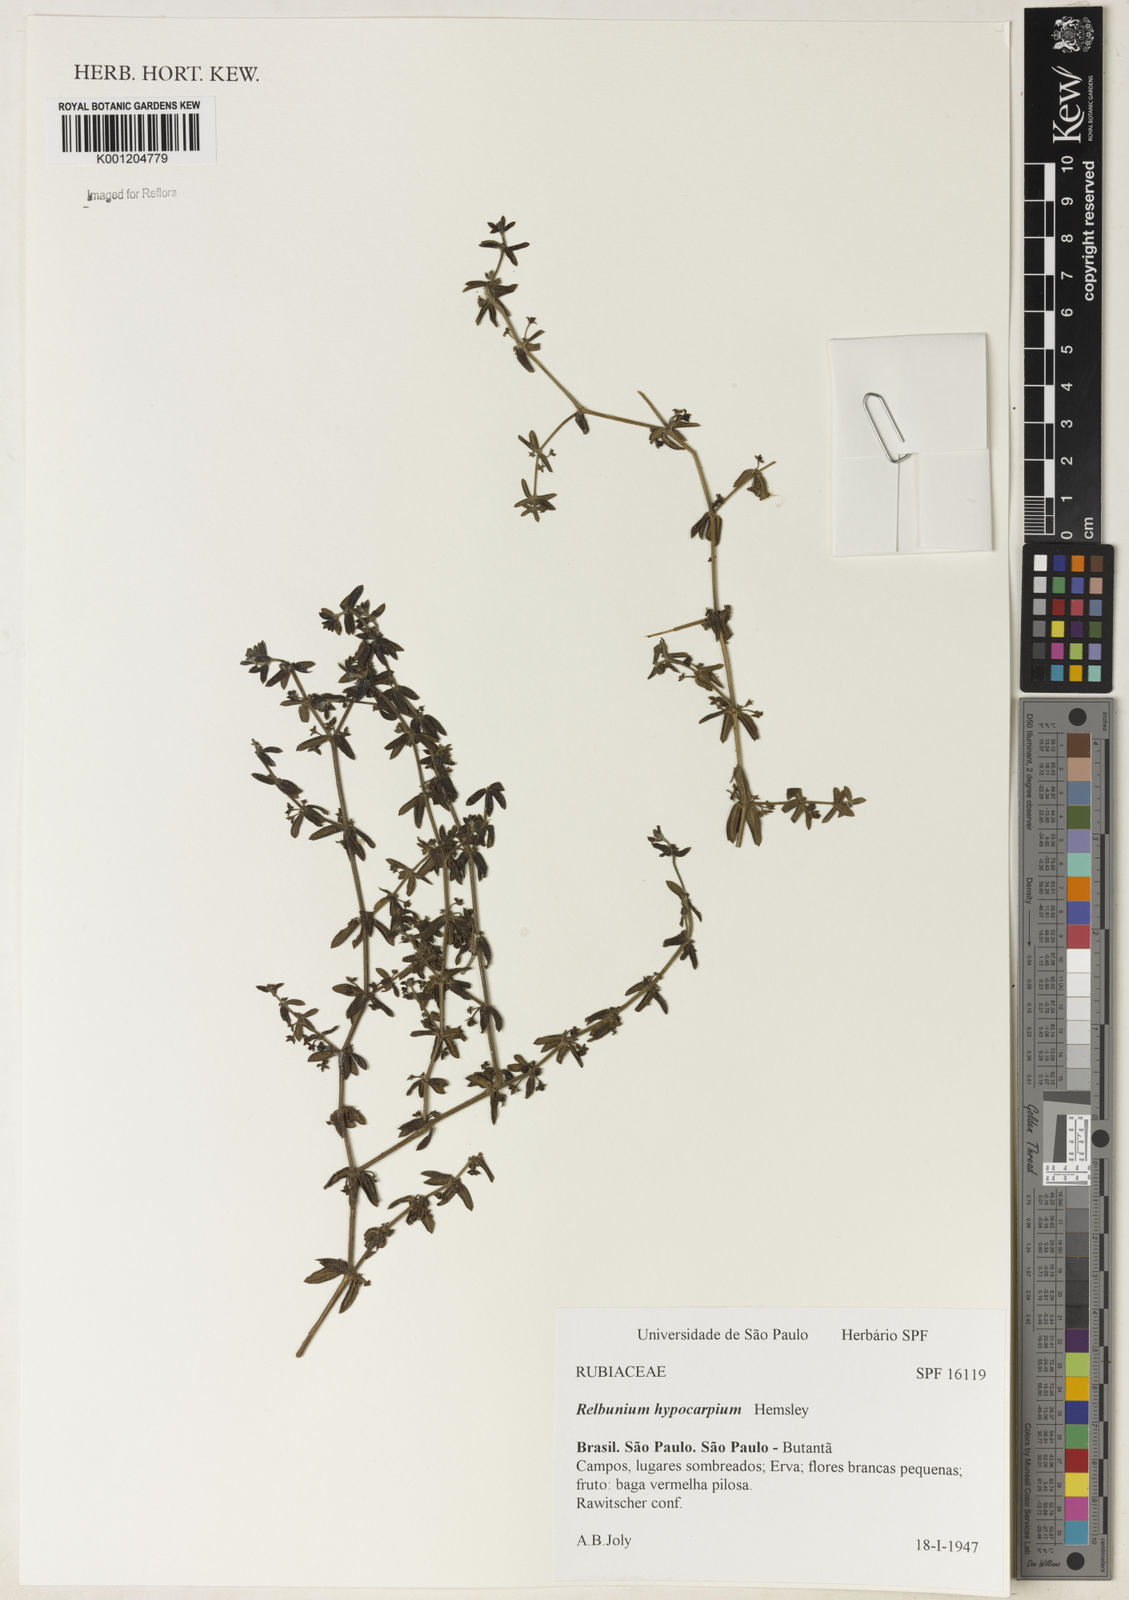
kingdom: Plantae
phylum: Tracheophyta
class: Magnoliopsida
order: Gentianales
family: Rubiaceae
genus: Galium
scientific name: Galium hypocarpium
